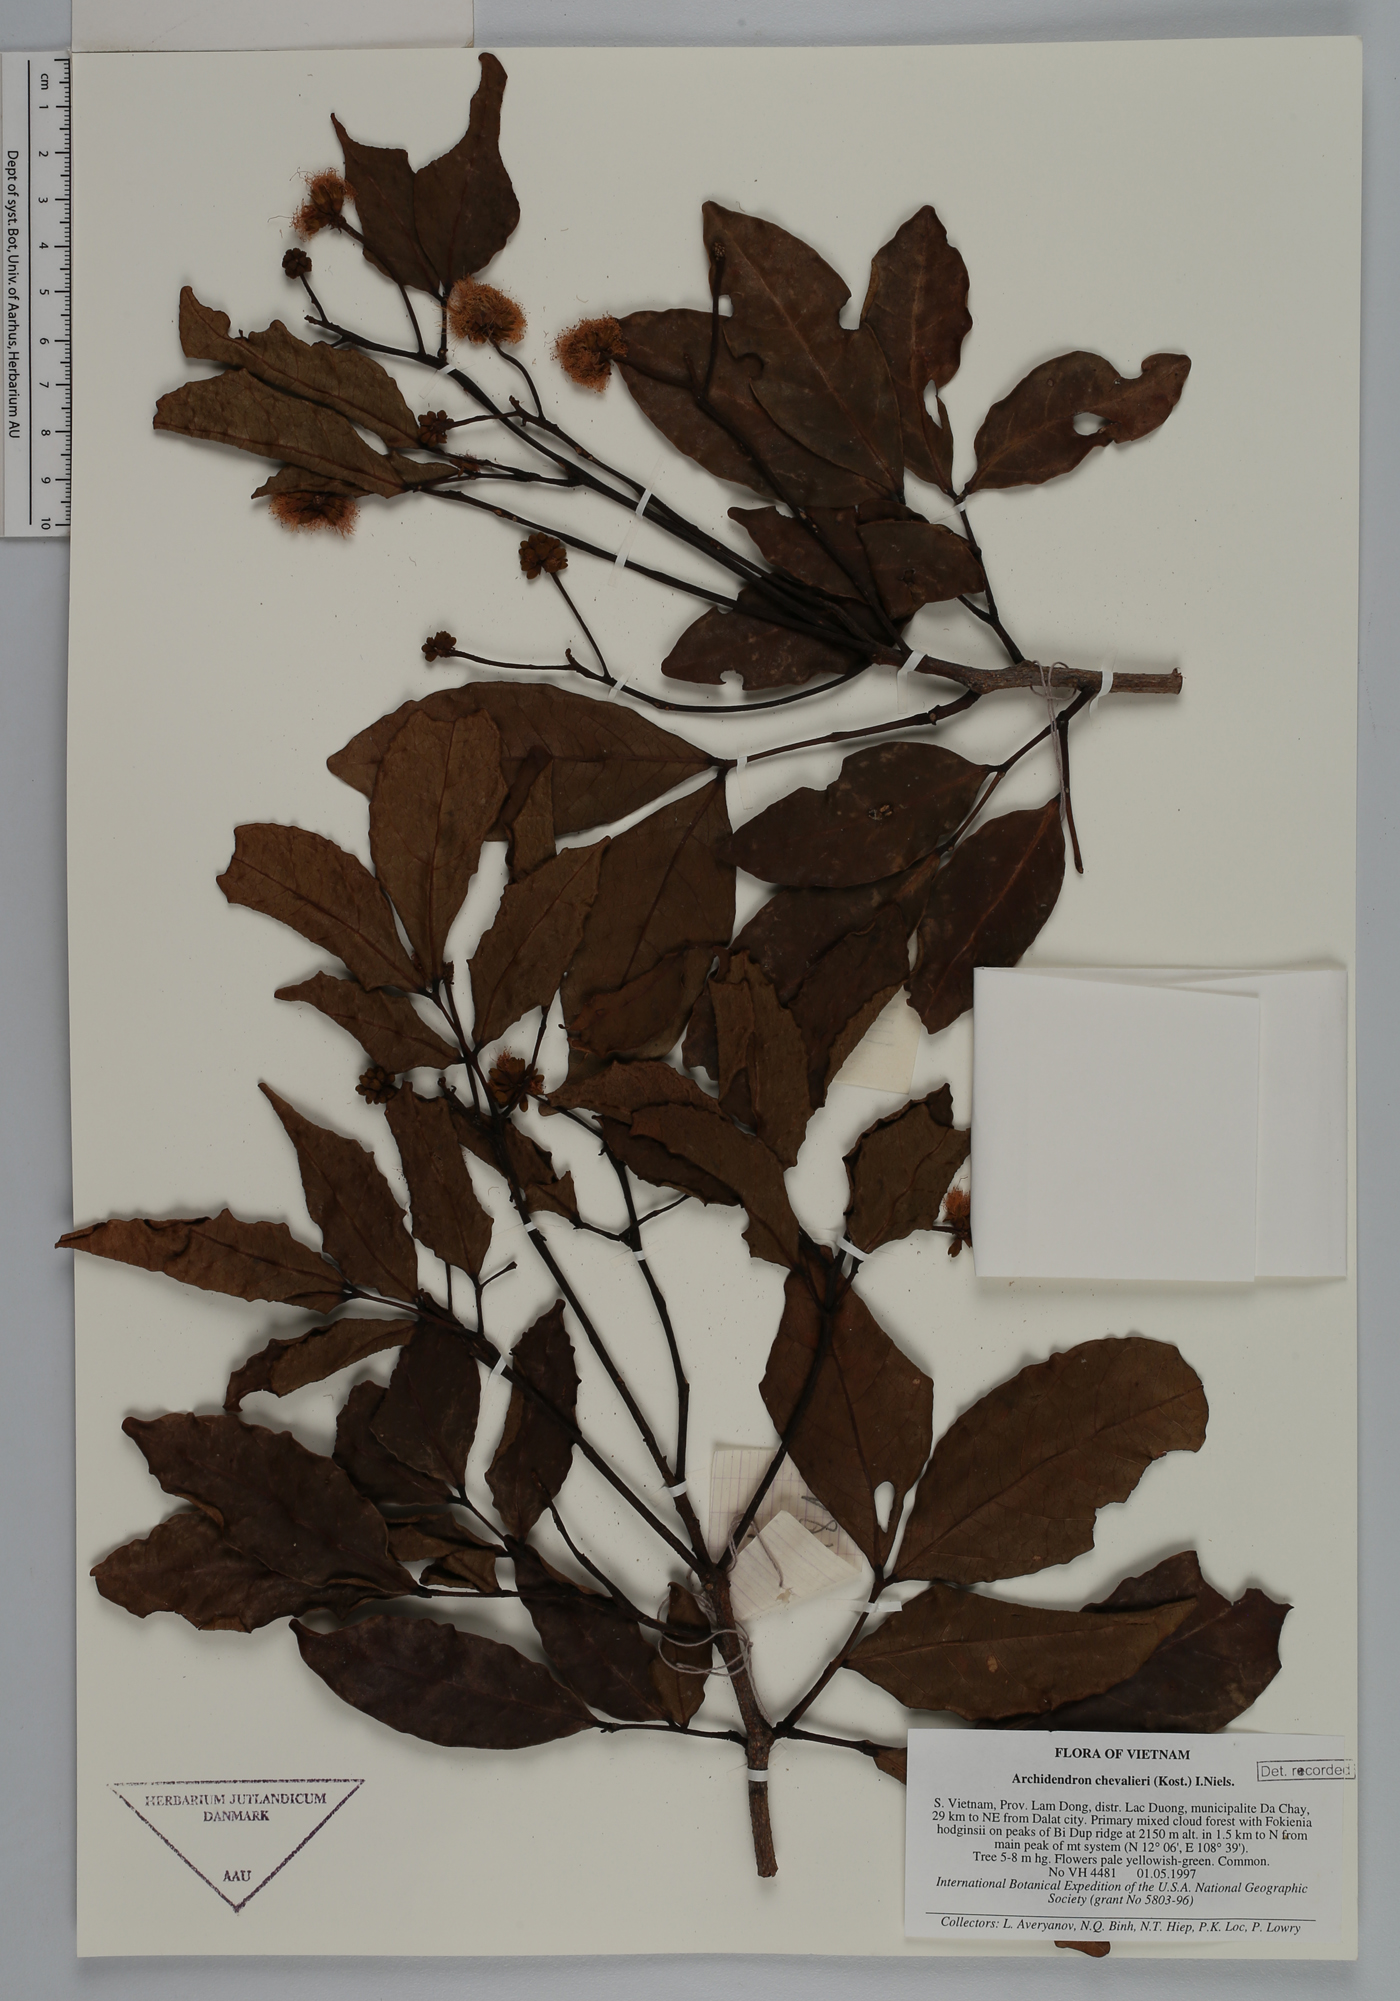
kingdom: Plantae
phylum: Tracheophyta
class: Magnoliopsida
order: Fabales
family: Fabaceae
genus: Archidendron
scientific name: Archidendron chevalieri
